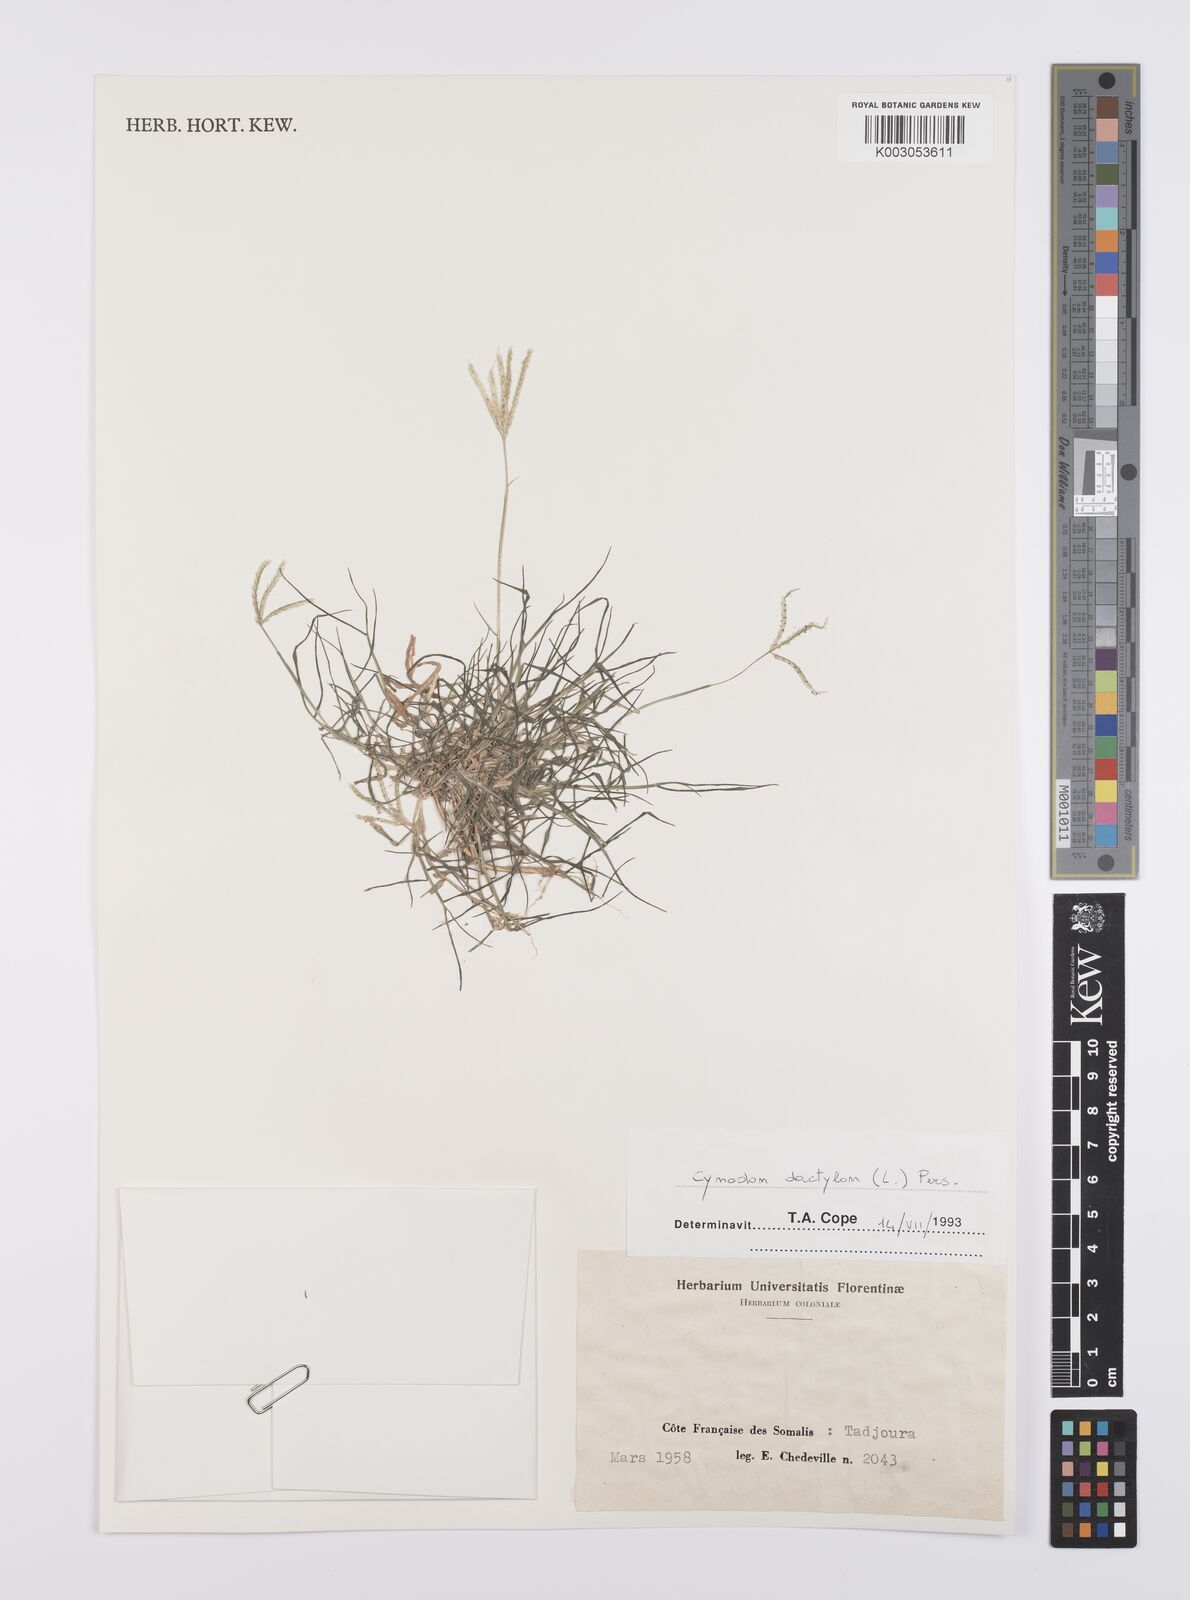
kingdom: Plantae
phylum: Tracheophyta
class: Liliopsida
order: Poales
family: Poaceae
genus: Cynodon
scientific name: Cynodon dactylon
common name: Bermuda grass
